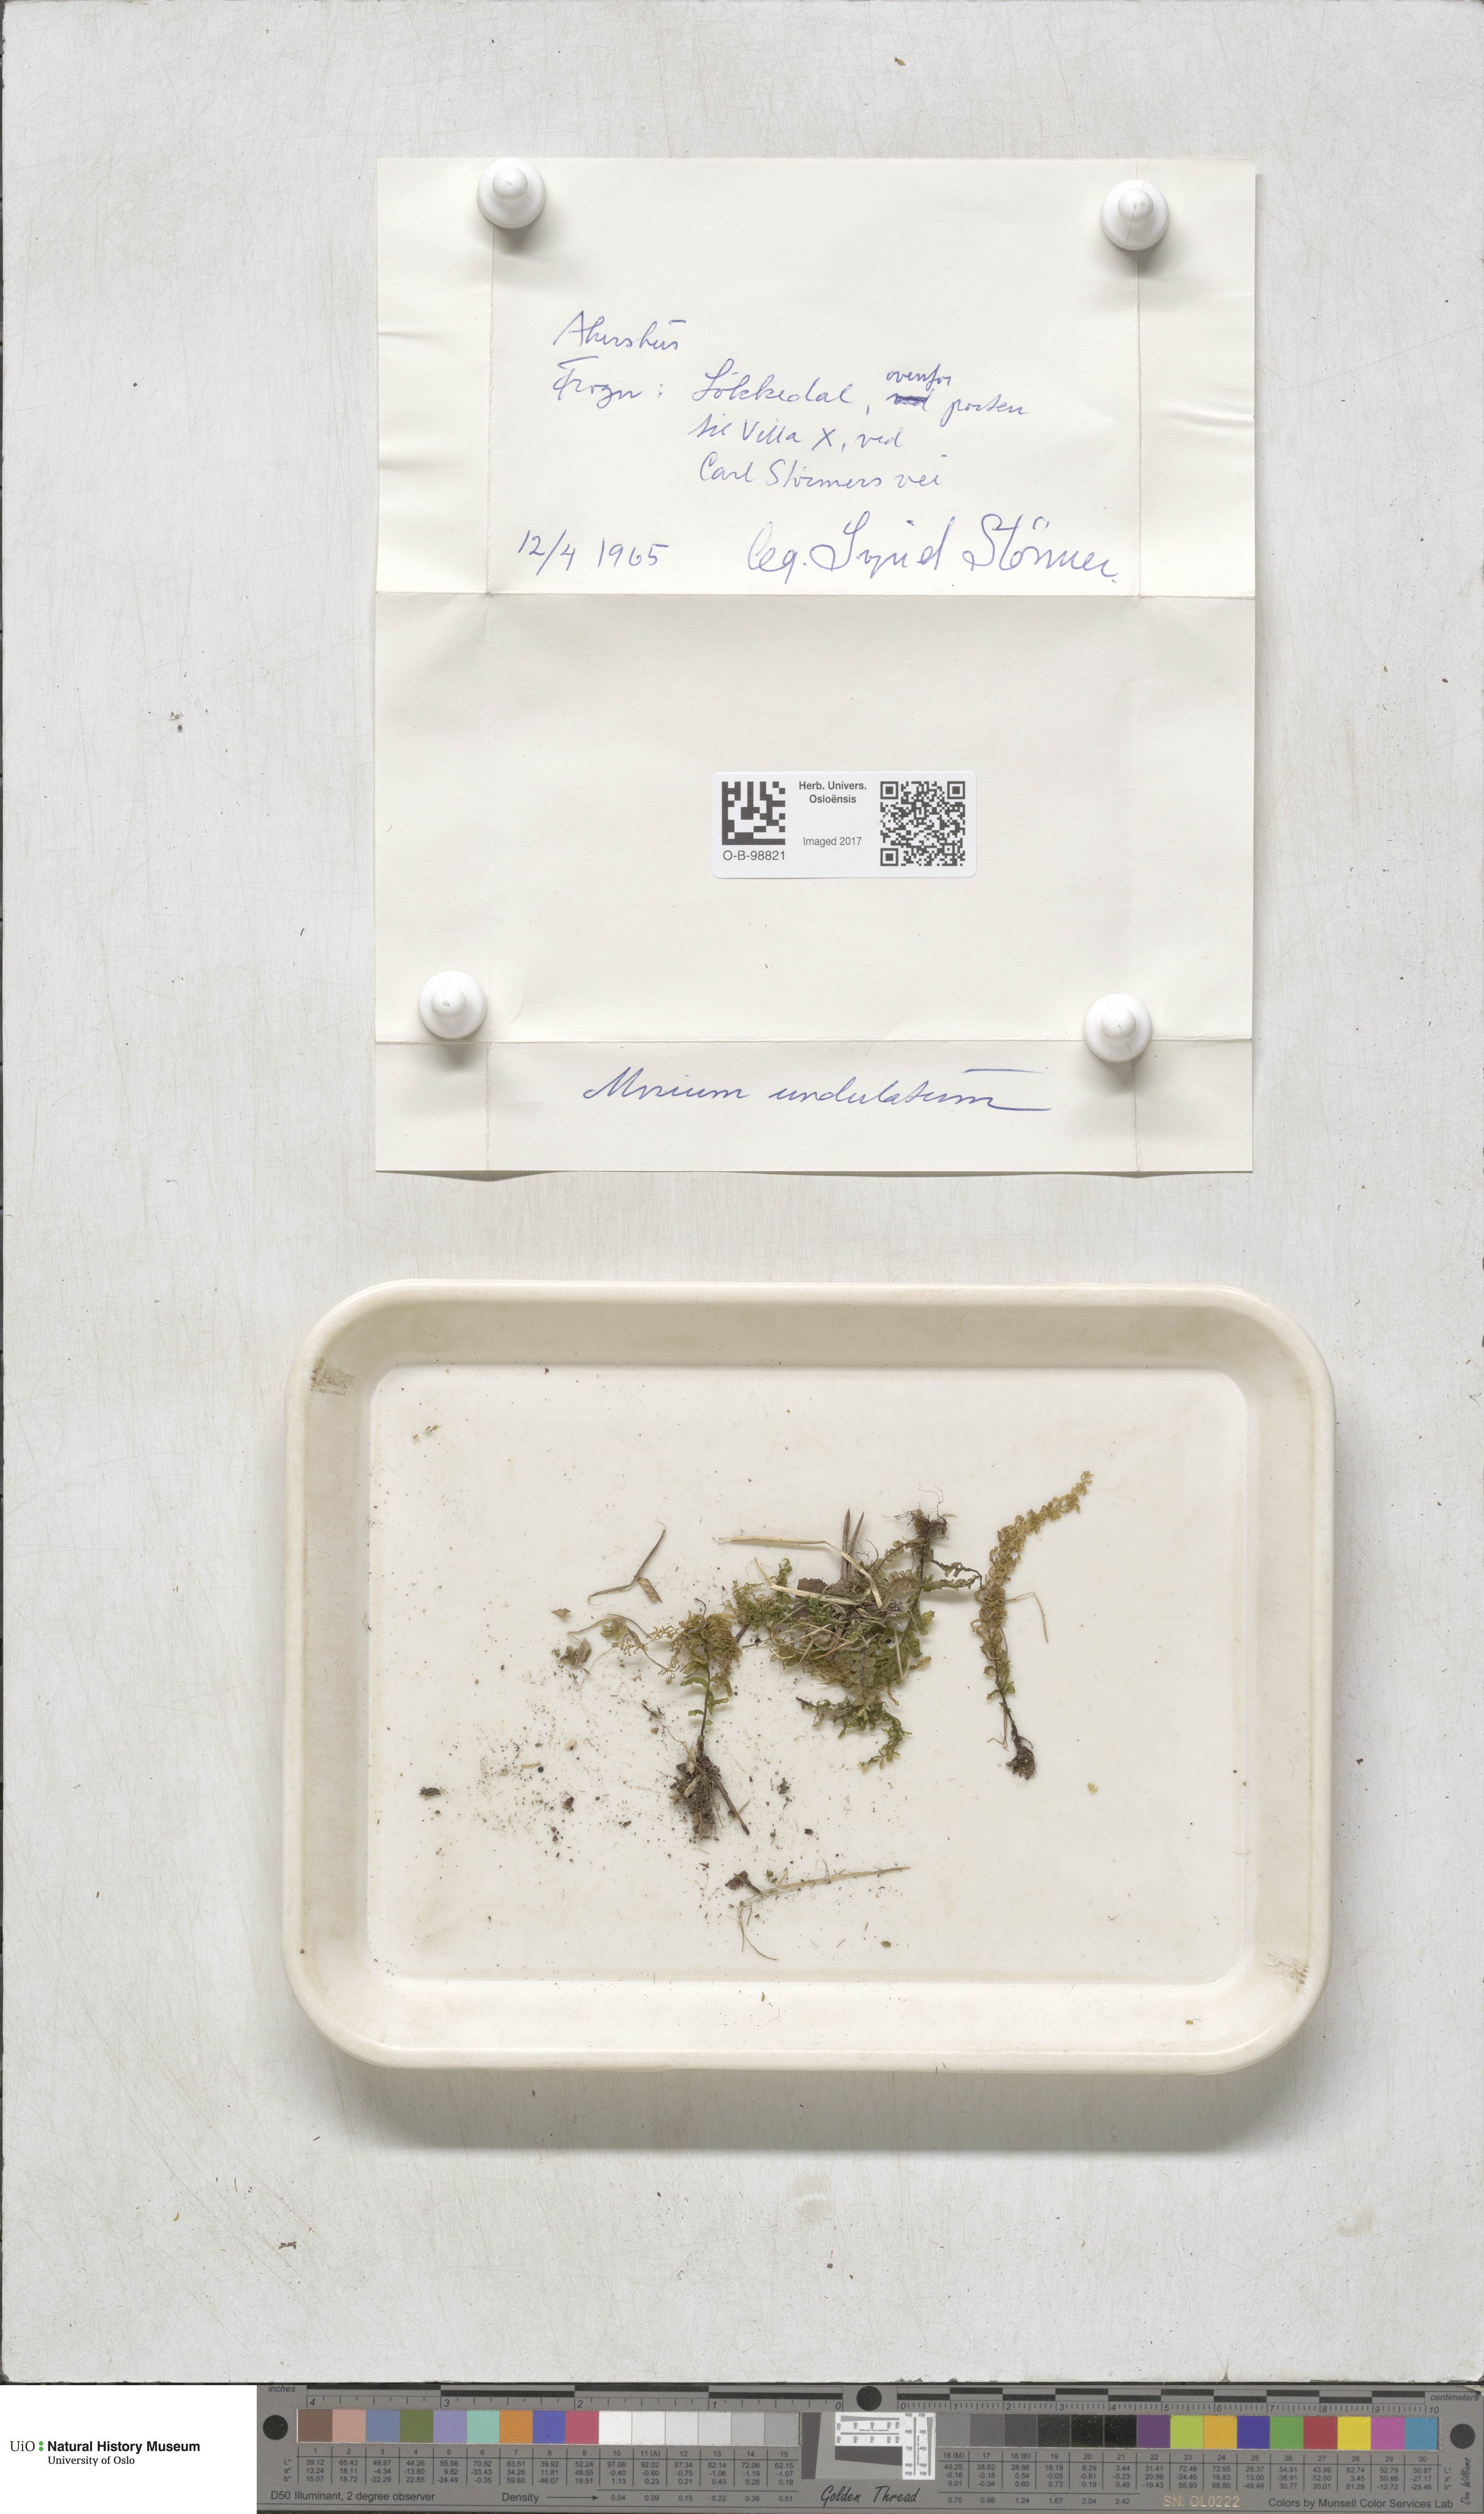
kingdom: Plantae
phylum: Bryophyta
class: Bryopsida
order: Bryales
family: Mniaceae
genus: Plagiomnium
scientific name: Plagiomnium undulatum
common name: Hart's-tongue thyme-moss
